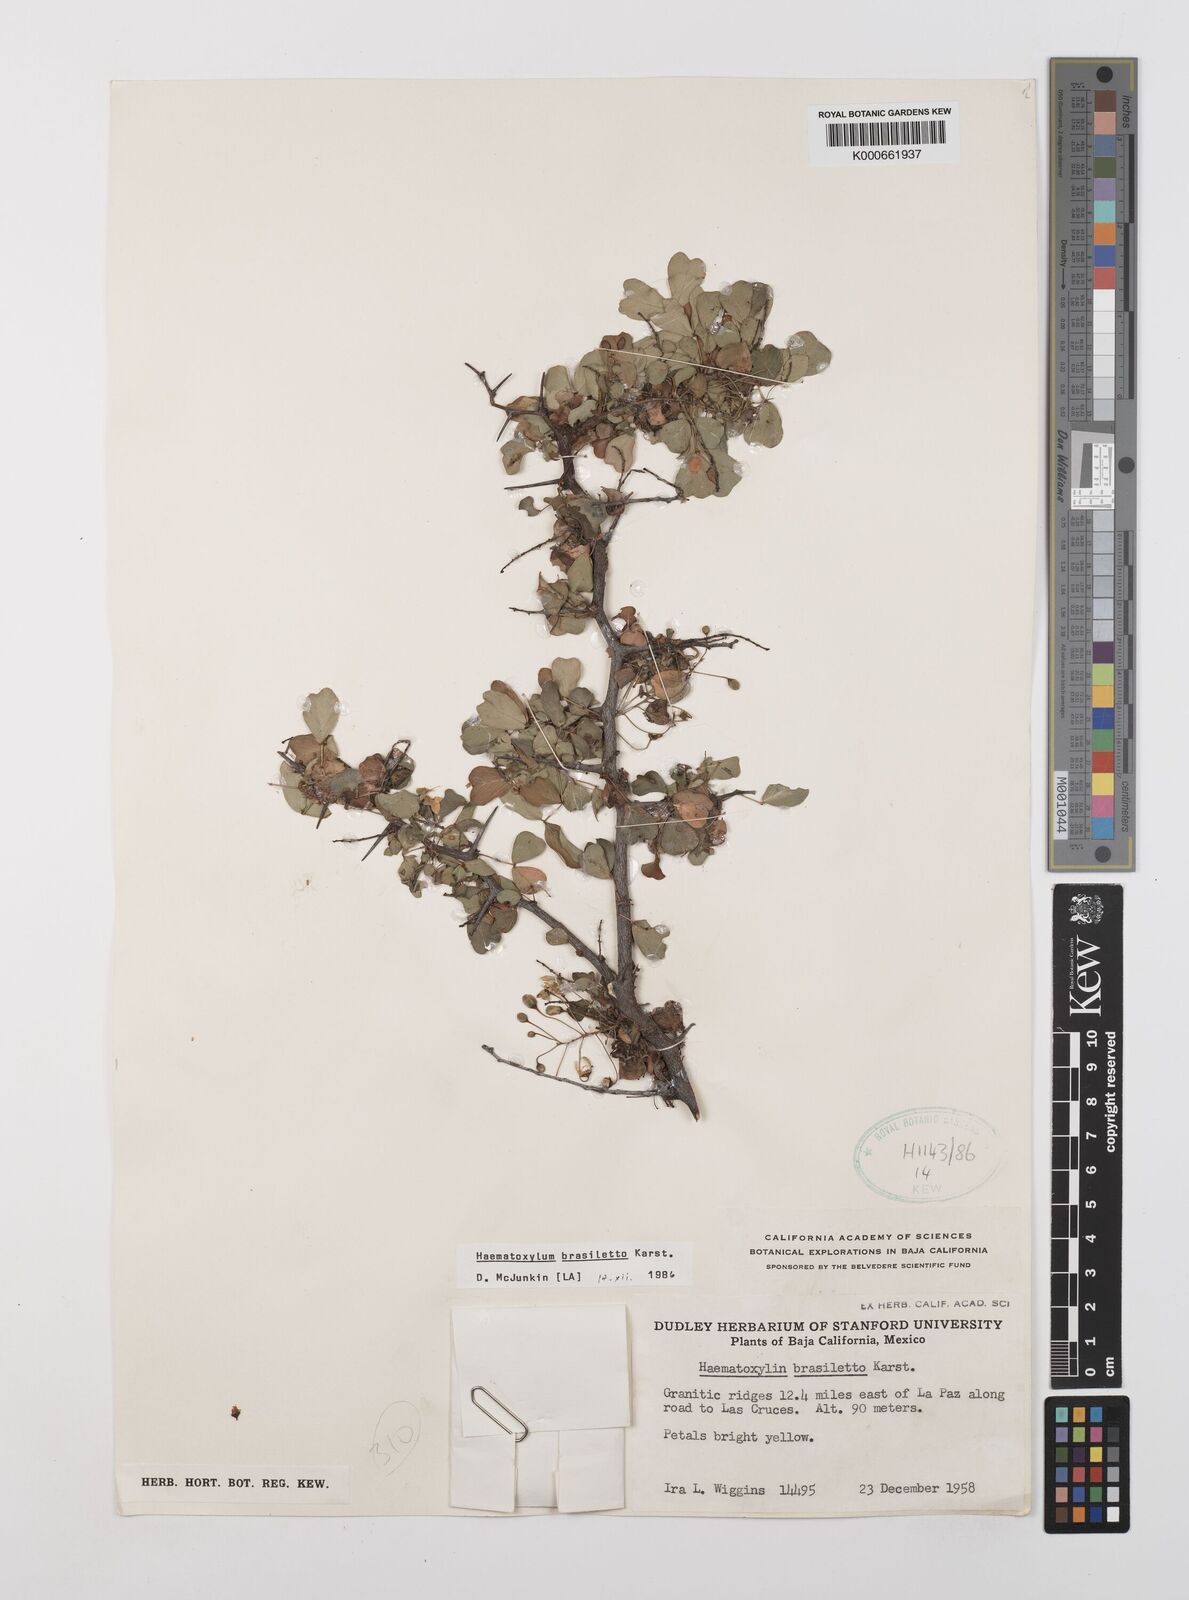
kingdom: Plantae
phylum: Tracheophyta
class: Magnoliopsida
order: Fabales
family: Fabaceae
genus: Haematoxylum
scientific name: Haematoxylum brasiletto
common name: Peachwood
